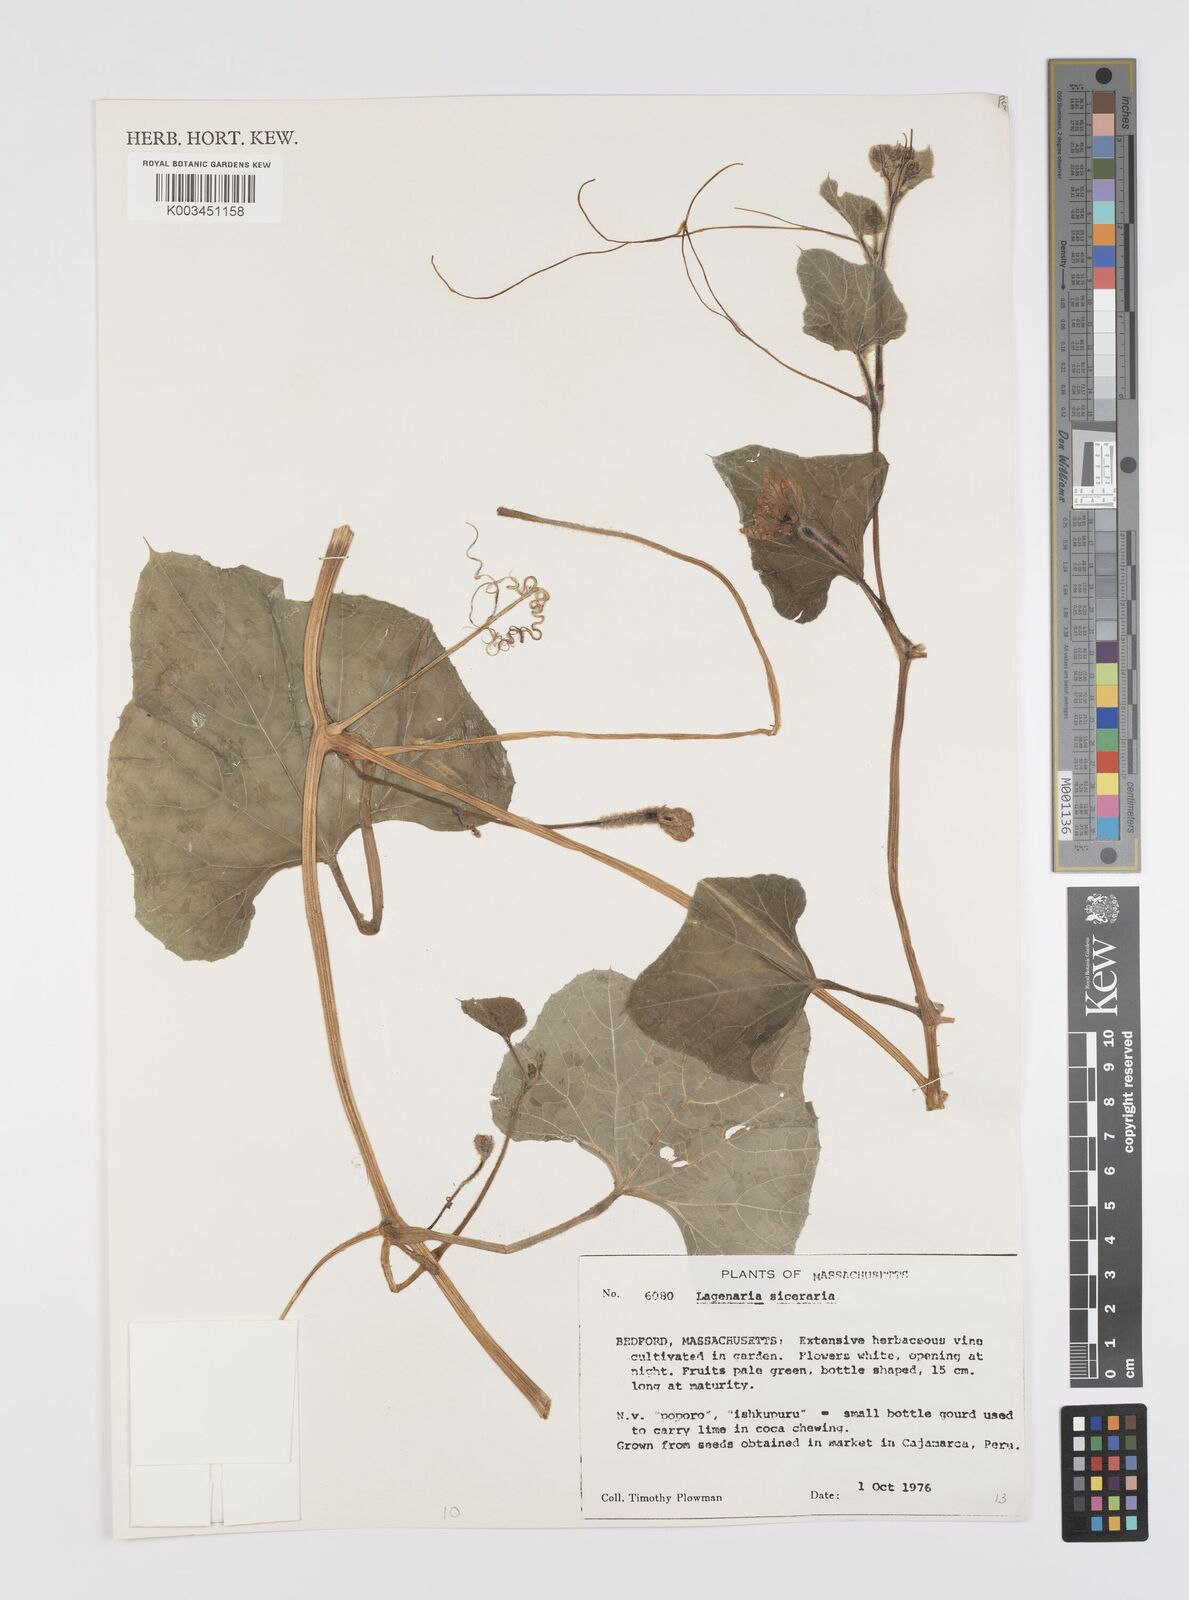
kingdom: Plantae
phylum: Tracheophyta
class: Magnoliopsida
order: Cucurbitales
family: Cucurbitaceae
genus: Lagenaria
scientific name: Lagenaria siceraria
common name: Bottle gourd
